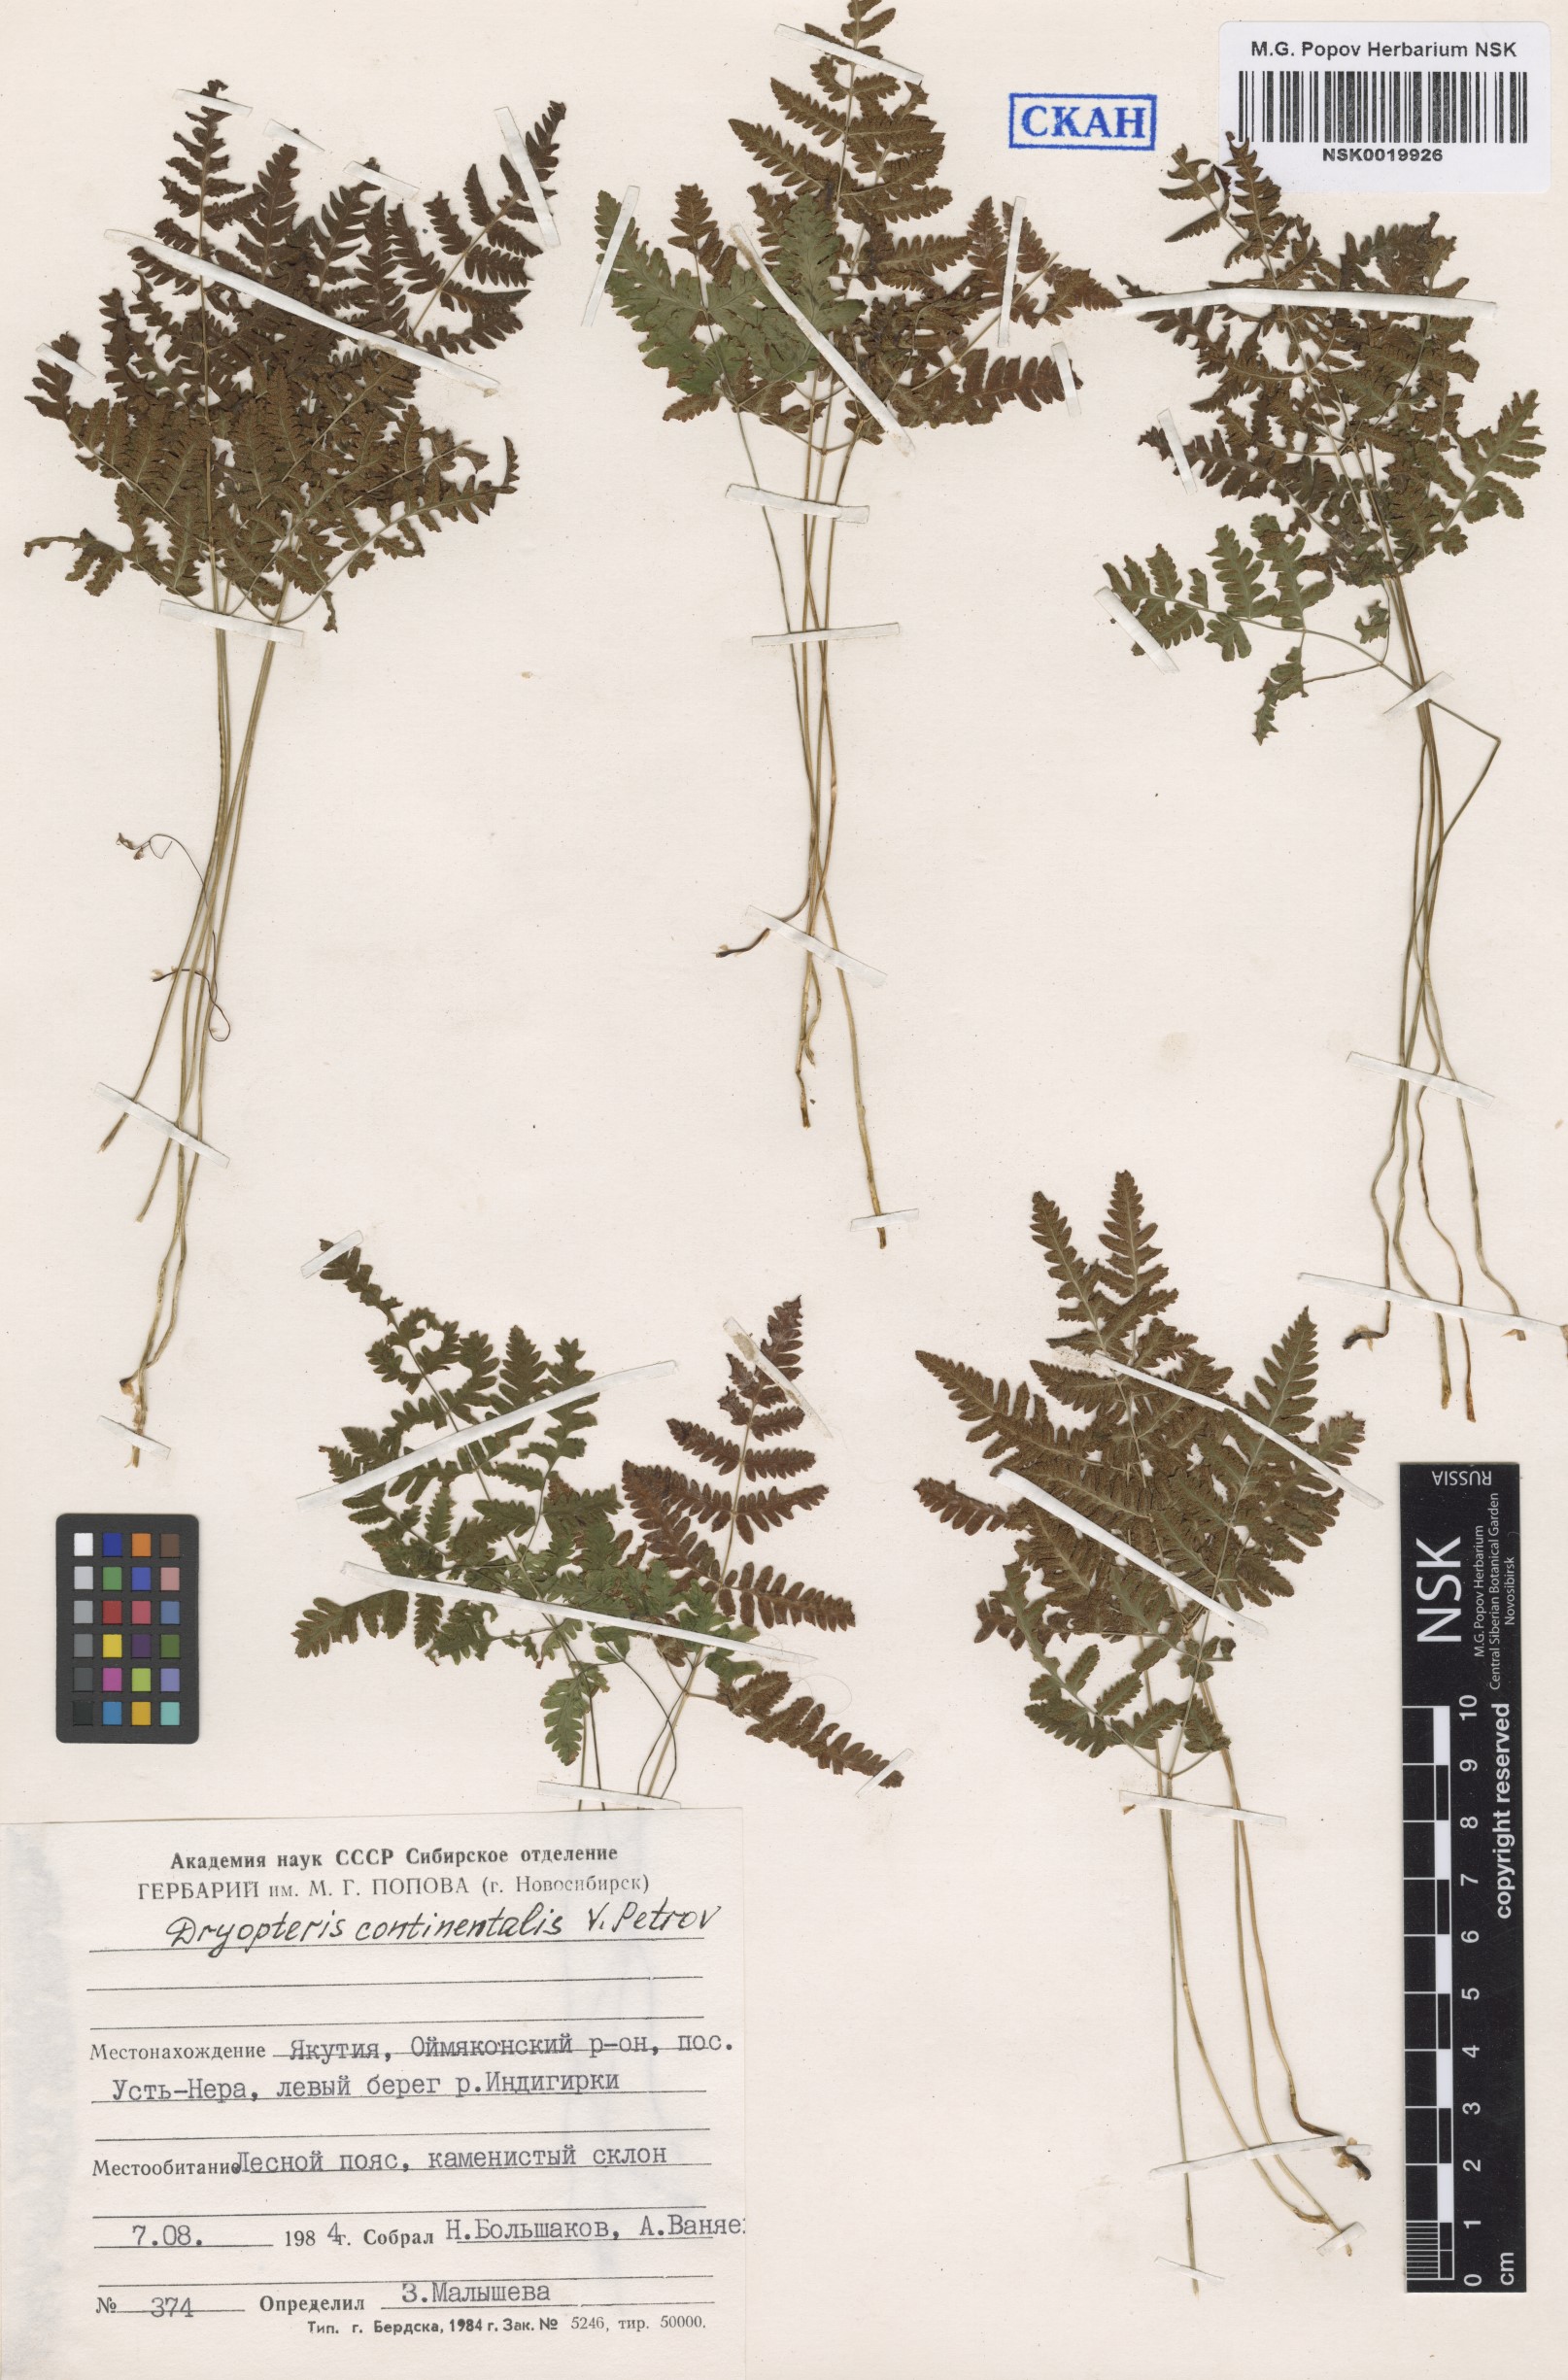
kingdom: Plantae
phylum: Tracheophyta
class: Polypodiopsida
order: Polypodiales
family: Cystopteridaceae
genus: Gymnocarpium
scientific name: Gymnocarpium continentale
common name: Asian oak fern
